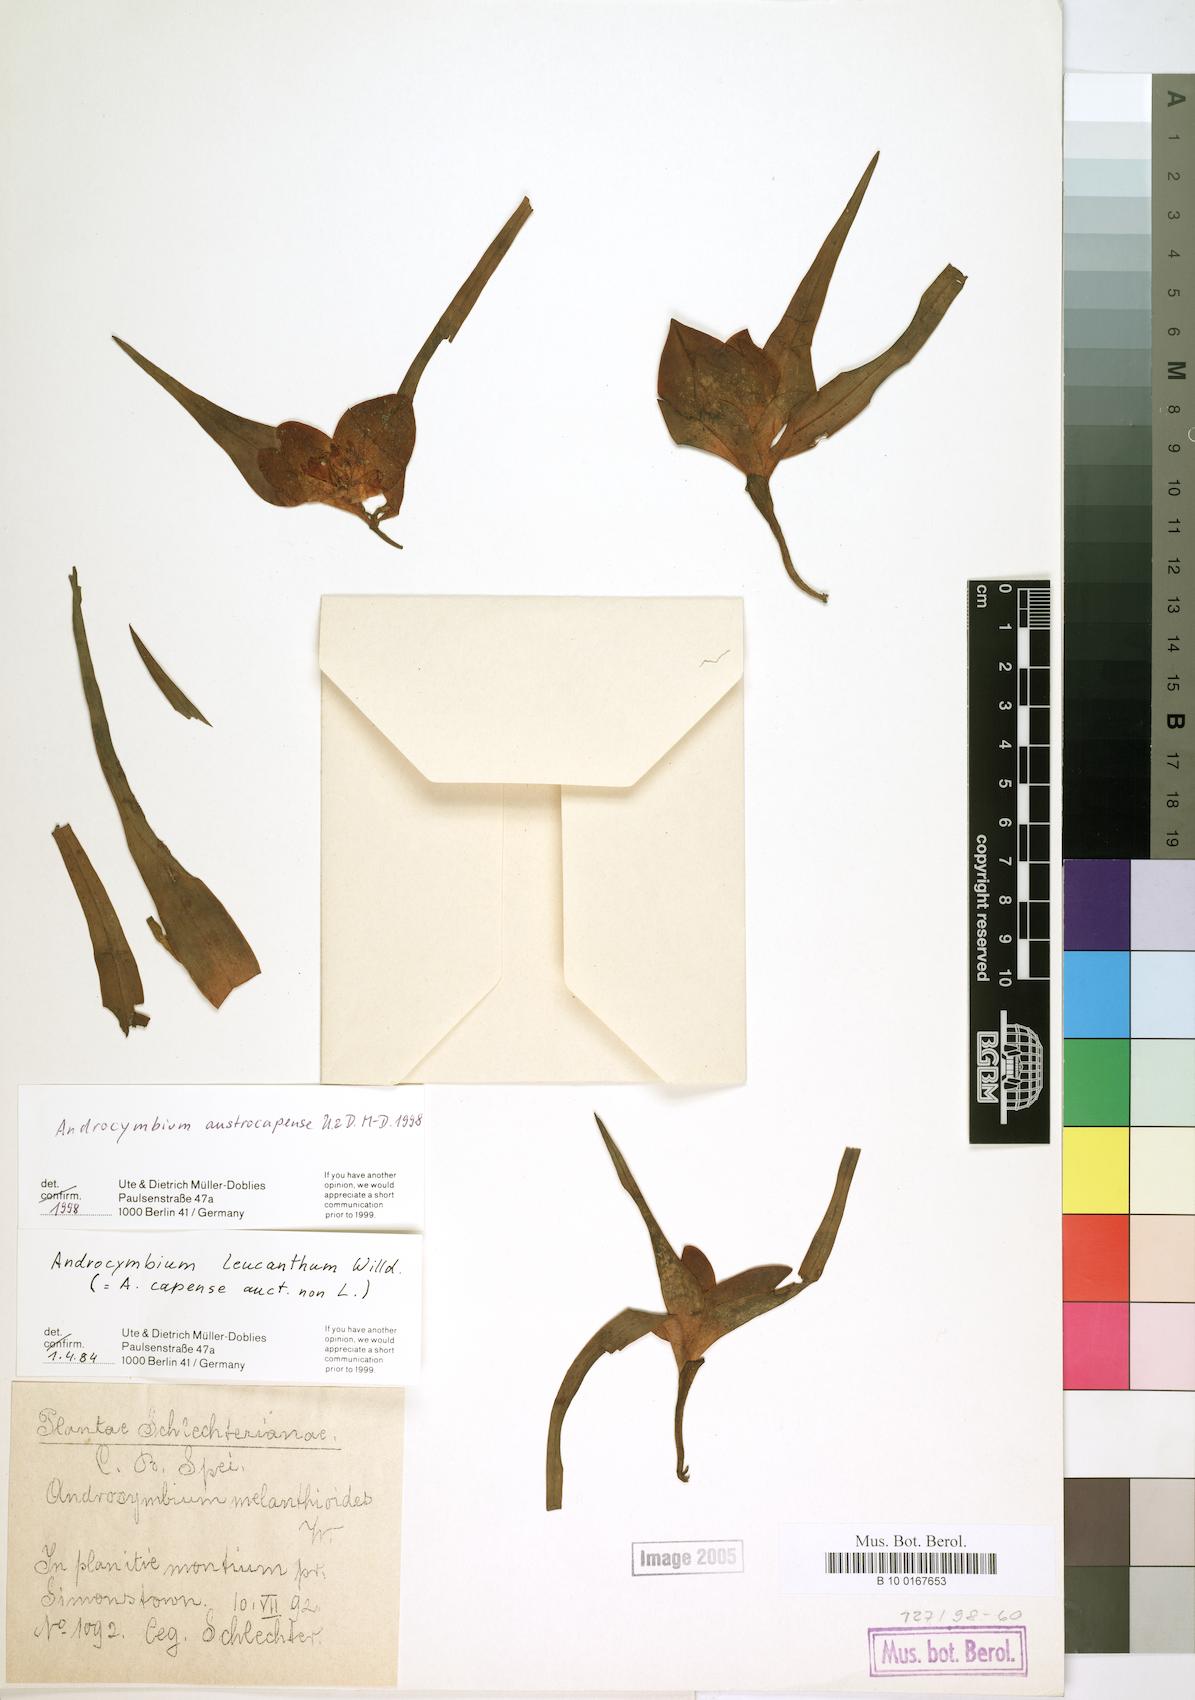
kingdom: Plantae
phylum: Tracheophyta
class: Liliopsida
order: Liliales
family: Colchicaceae
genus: Colchicum
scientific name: Colchicum austrocapense
